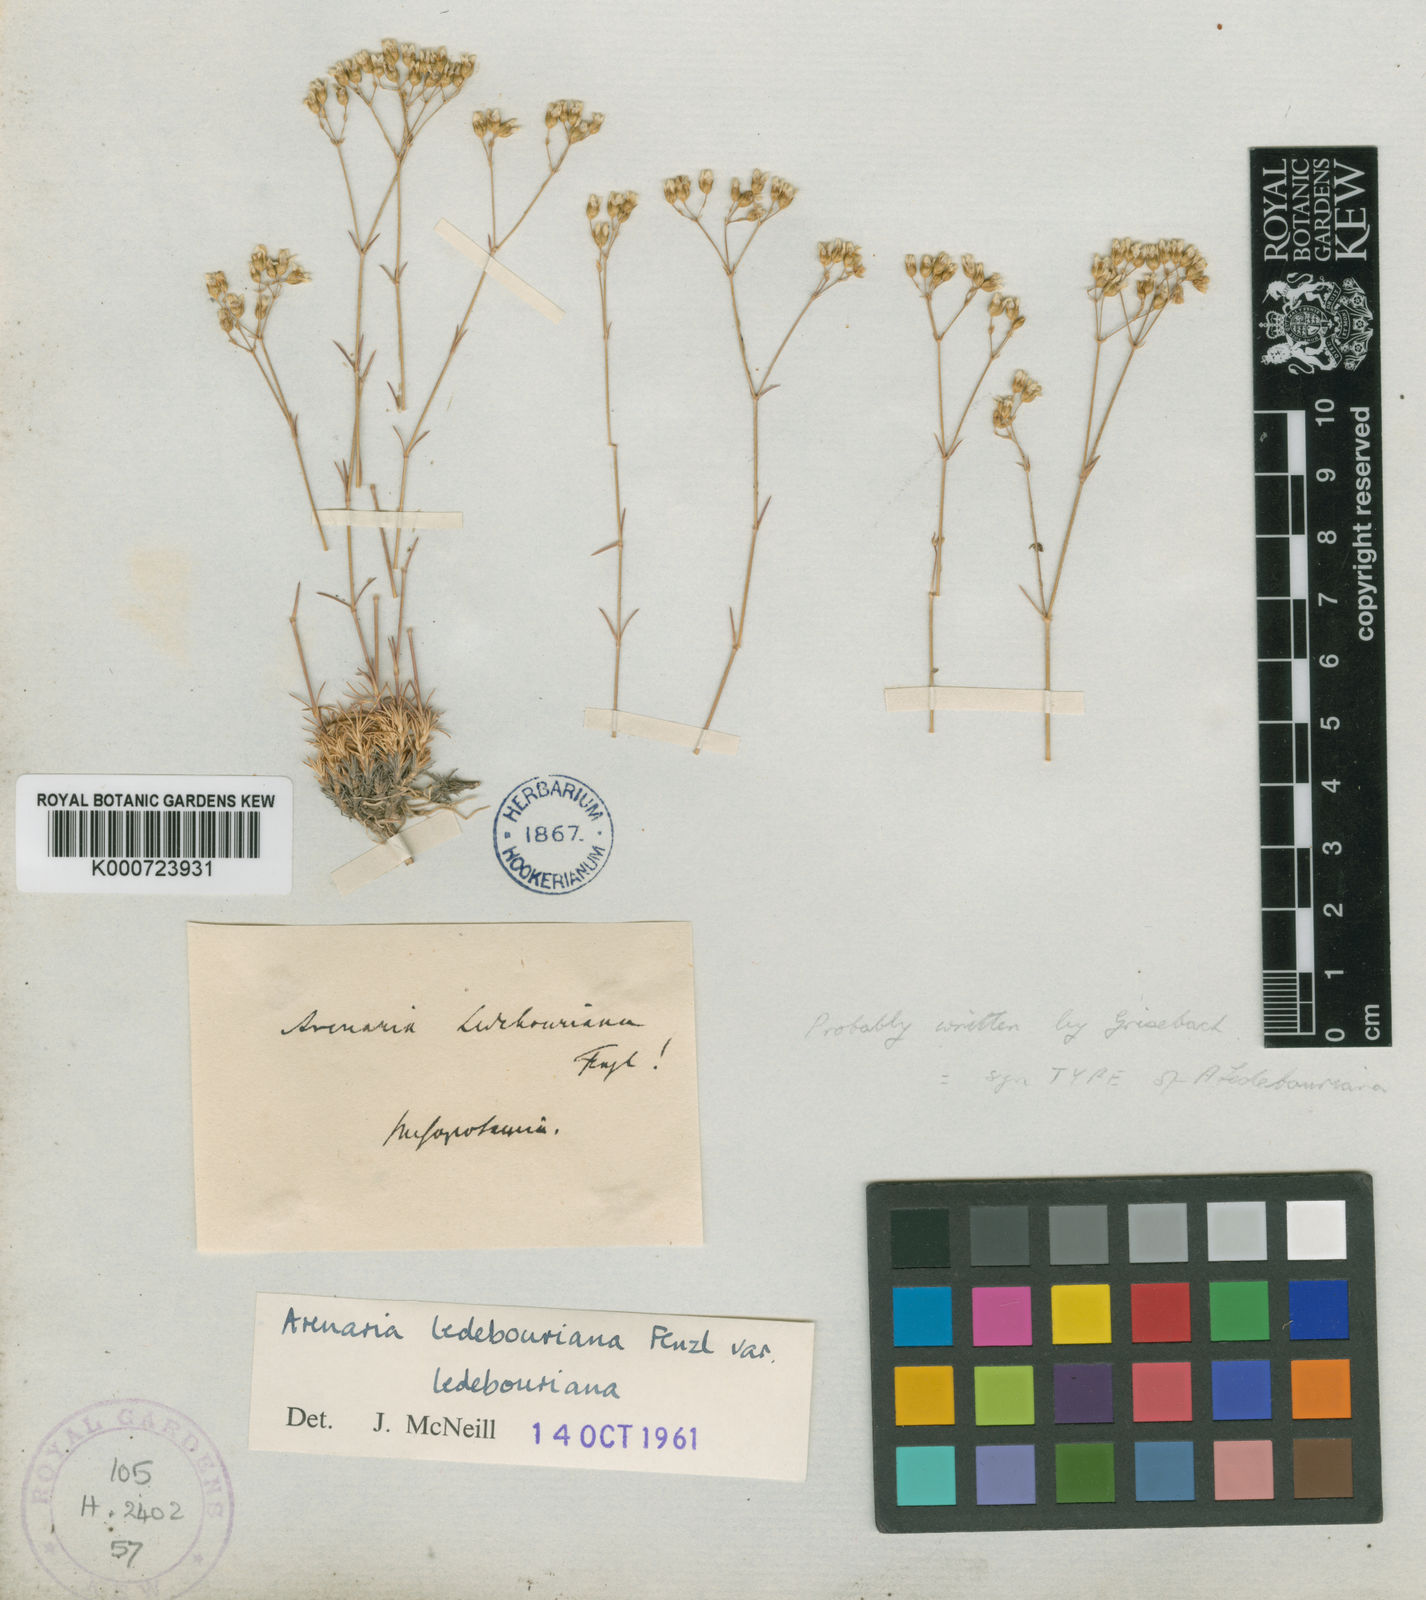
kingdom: Plantae
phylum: Tracheophyta
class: Magnoliopsida
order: Caryophyllales
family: Caryophyllaceae
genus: Eremogone
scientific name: Eremogone ledebouriana
